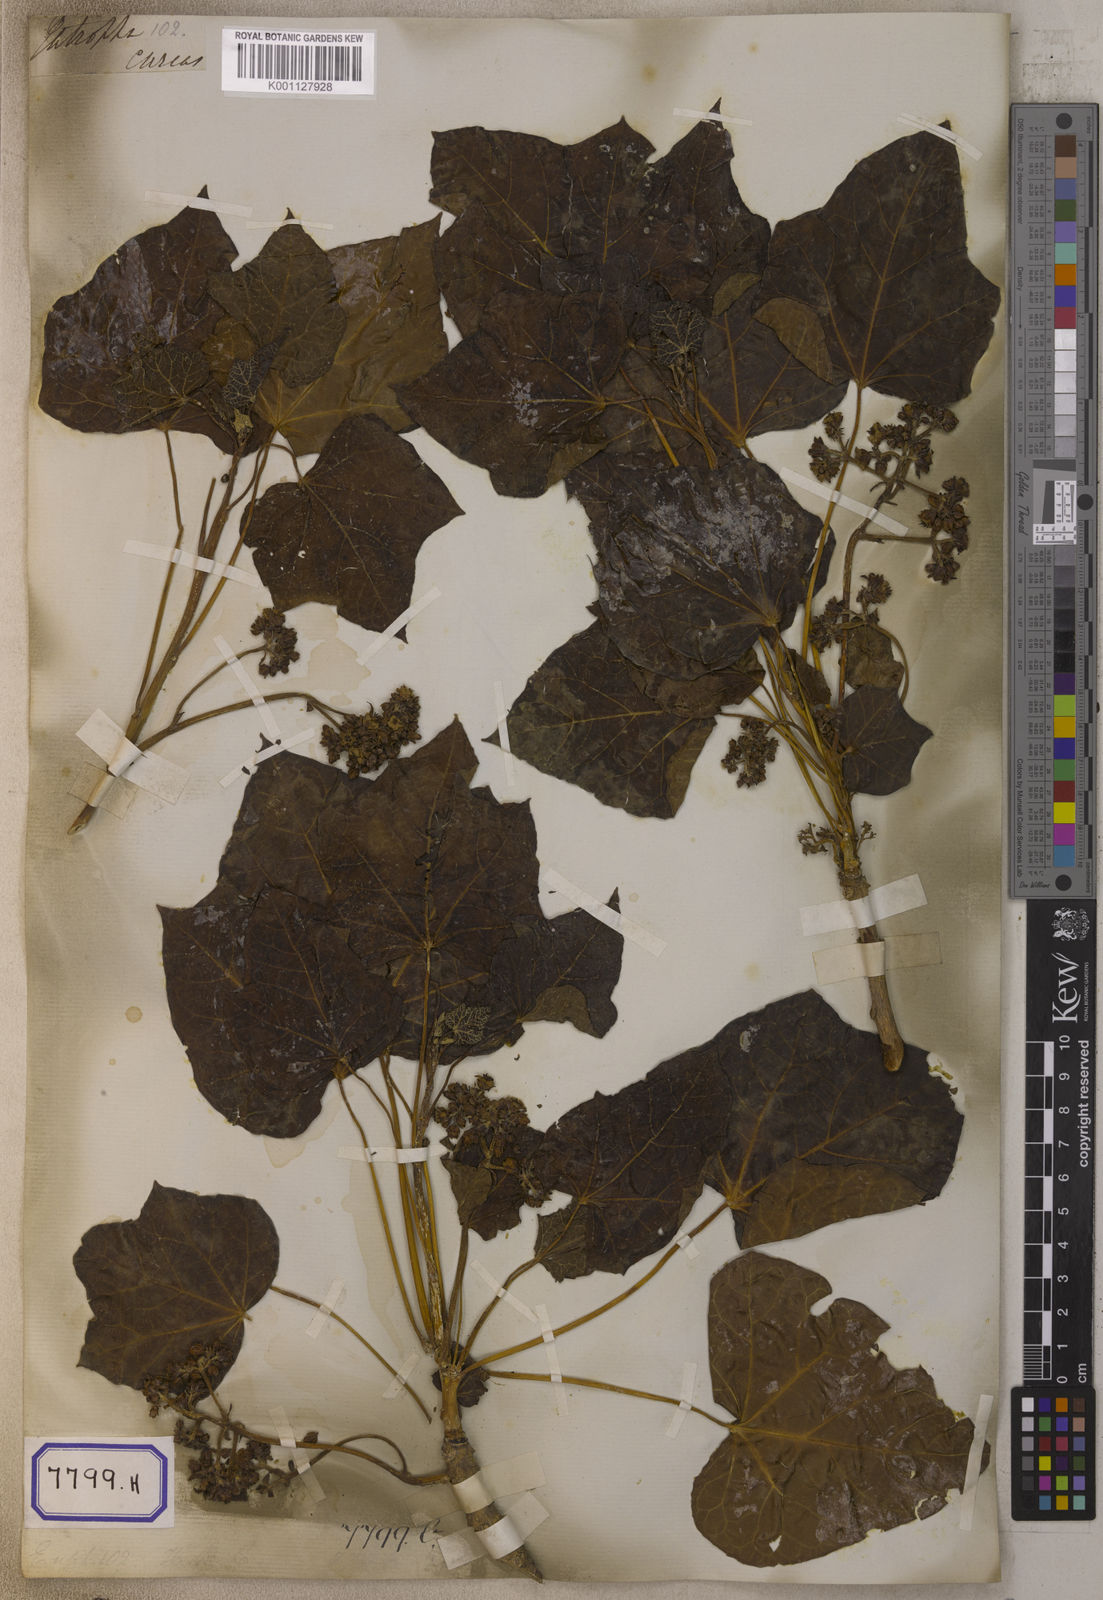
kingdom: Plantae
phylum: Tracheophyta
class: Magnoliopsida
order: Malpighiales
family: Euphorbiaceae
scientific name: Euphorbiaceae
